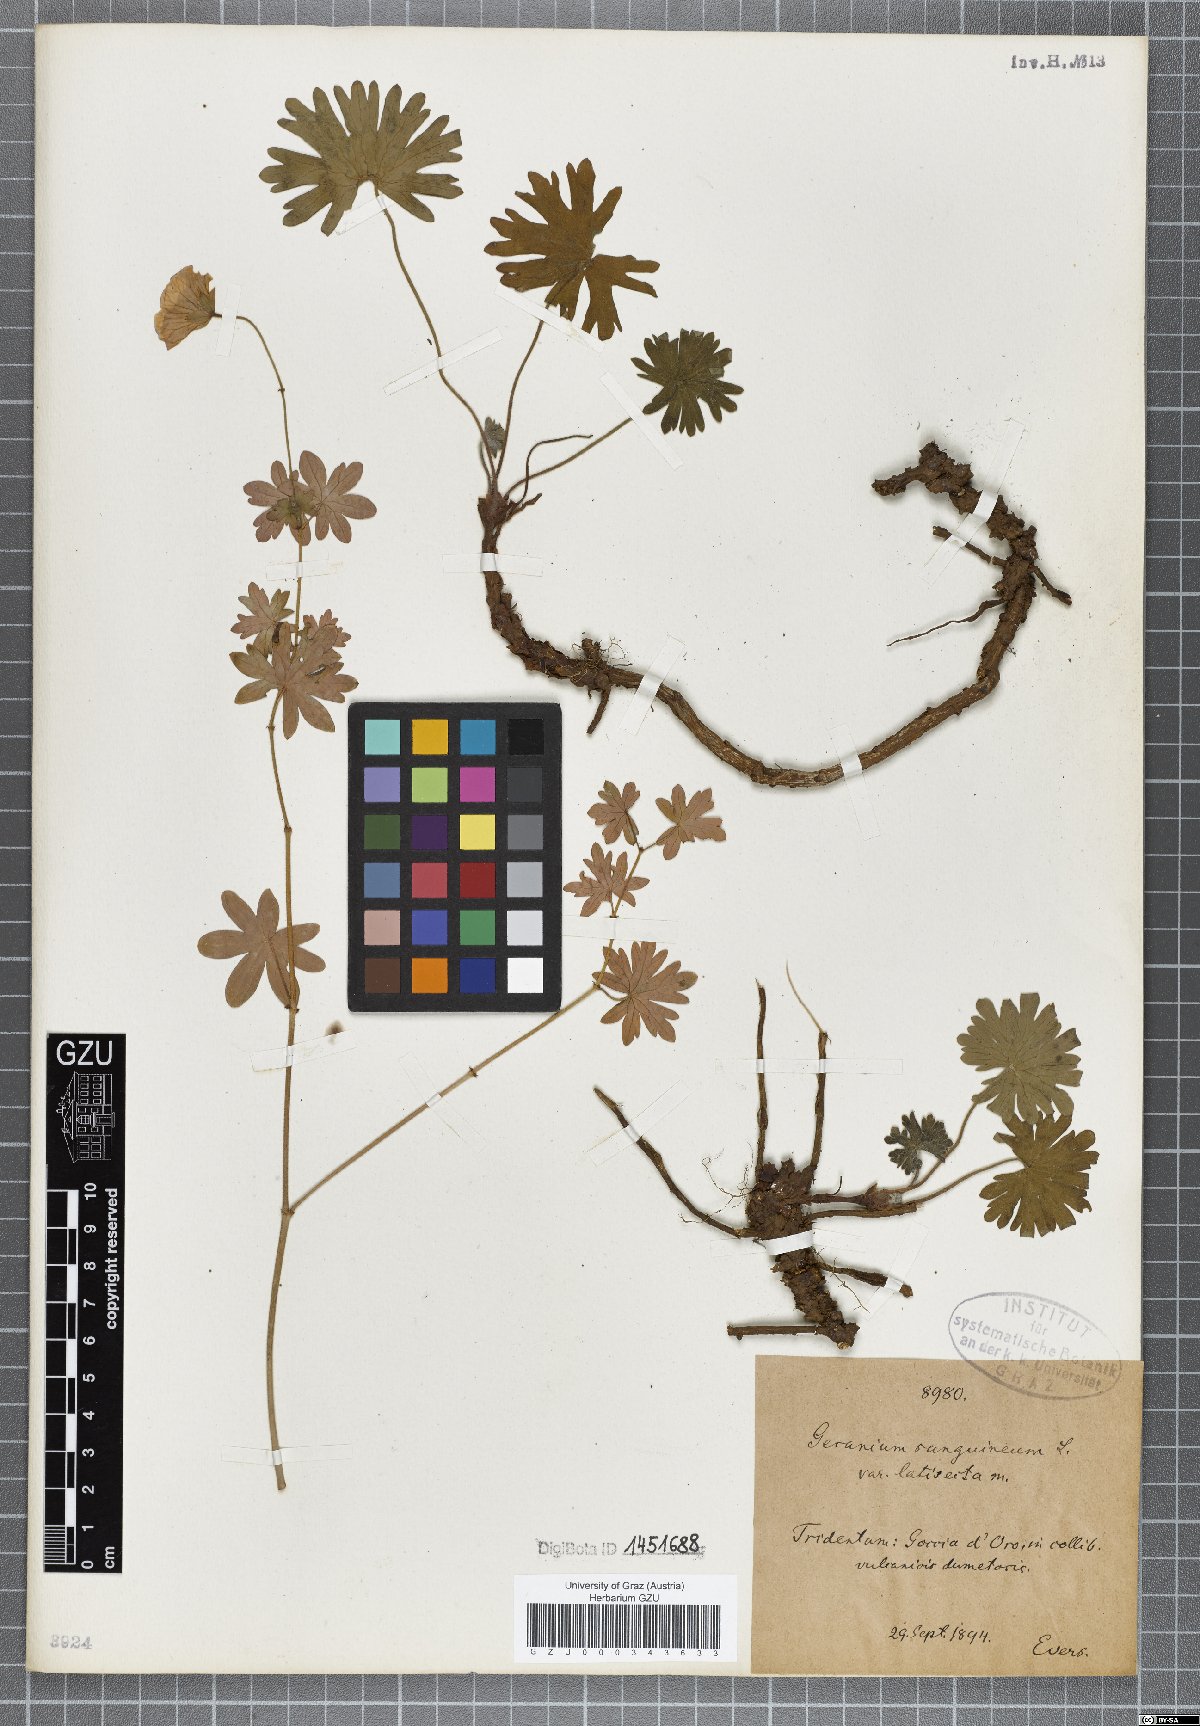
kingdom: Plantae
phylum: Tracheophyta
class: Magnoliopsida
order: Geraniales
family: Geraniaceae
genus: Geranium
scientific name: Geranium sanguineum
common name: Bloody crane's-bill
